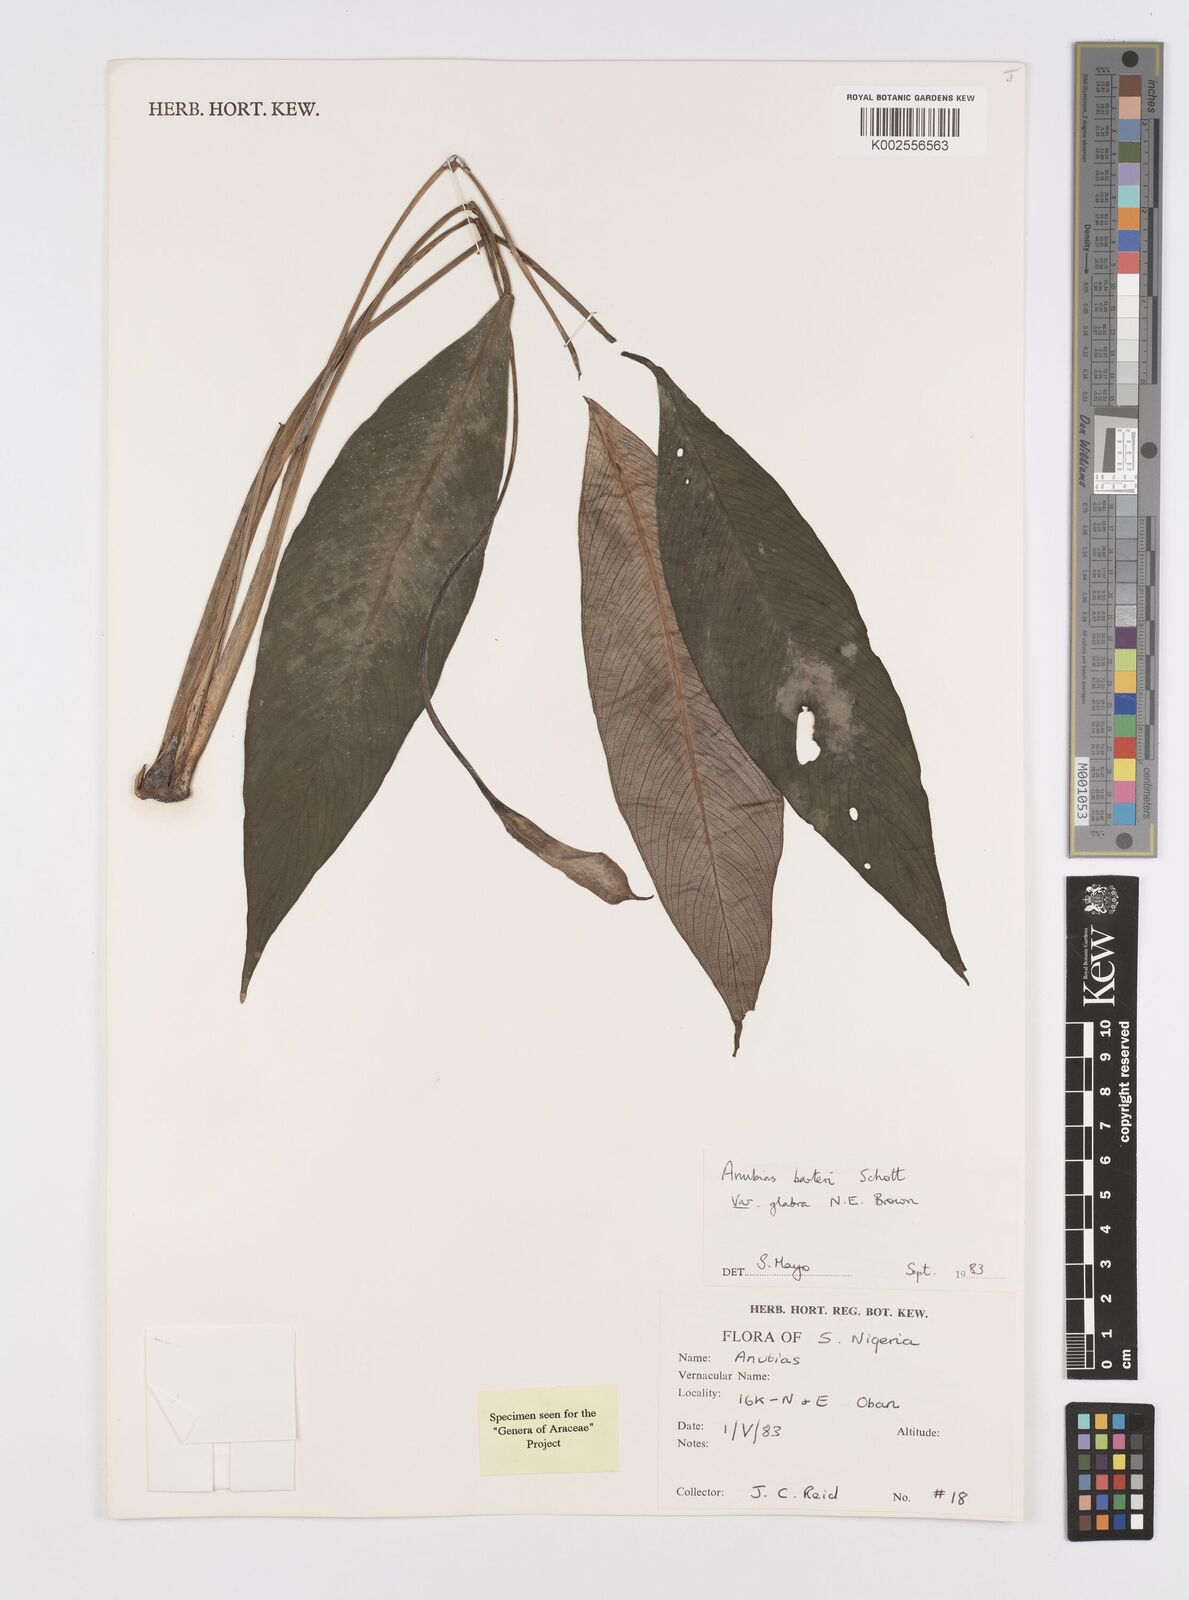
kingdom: Plantae
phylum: Tracheophyta
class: Liliopsida
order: Alismatales
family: Araceae
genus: Anubias
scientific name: Anubias barteri
